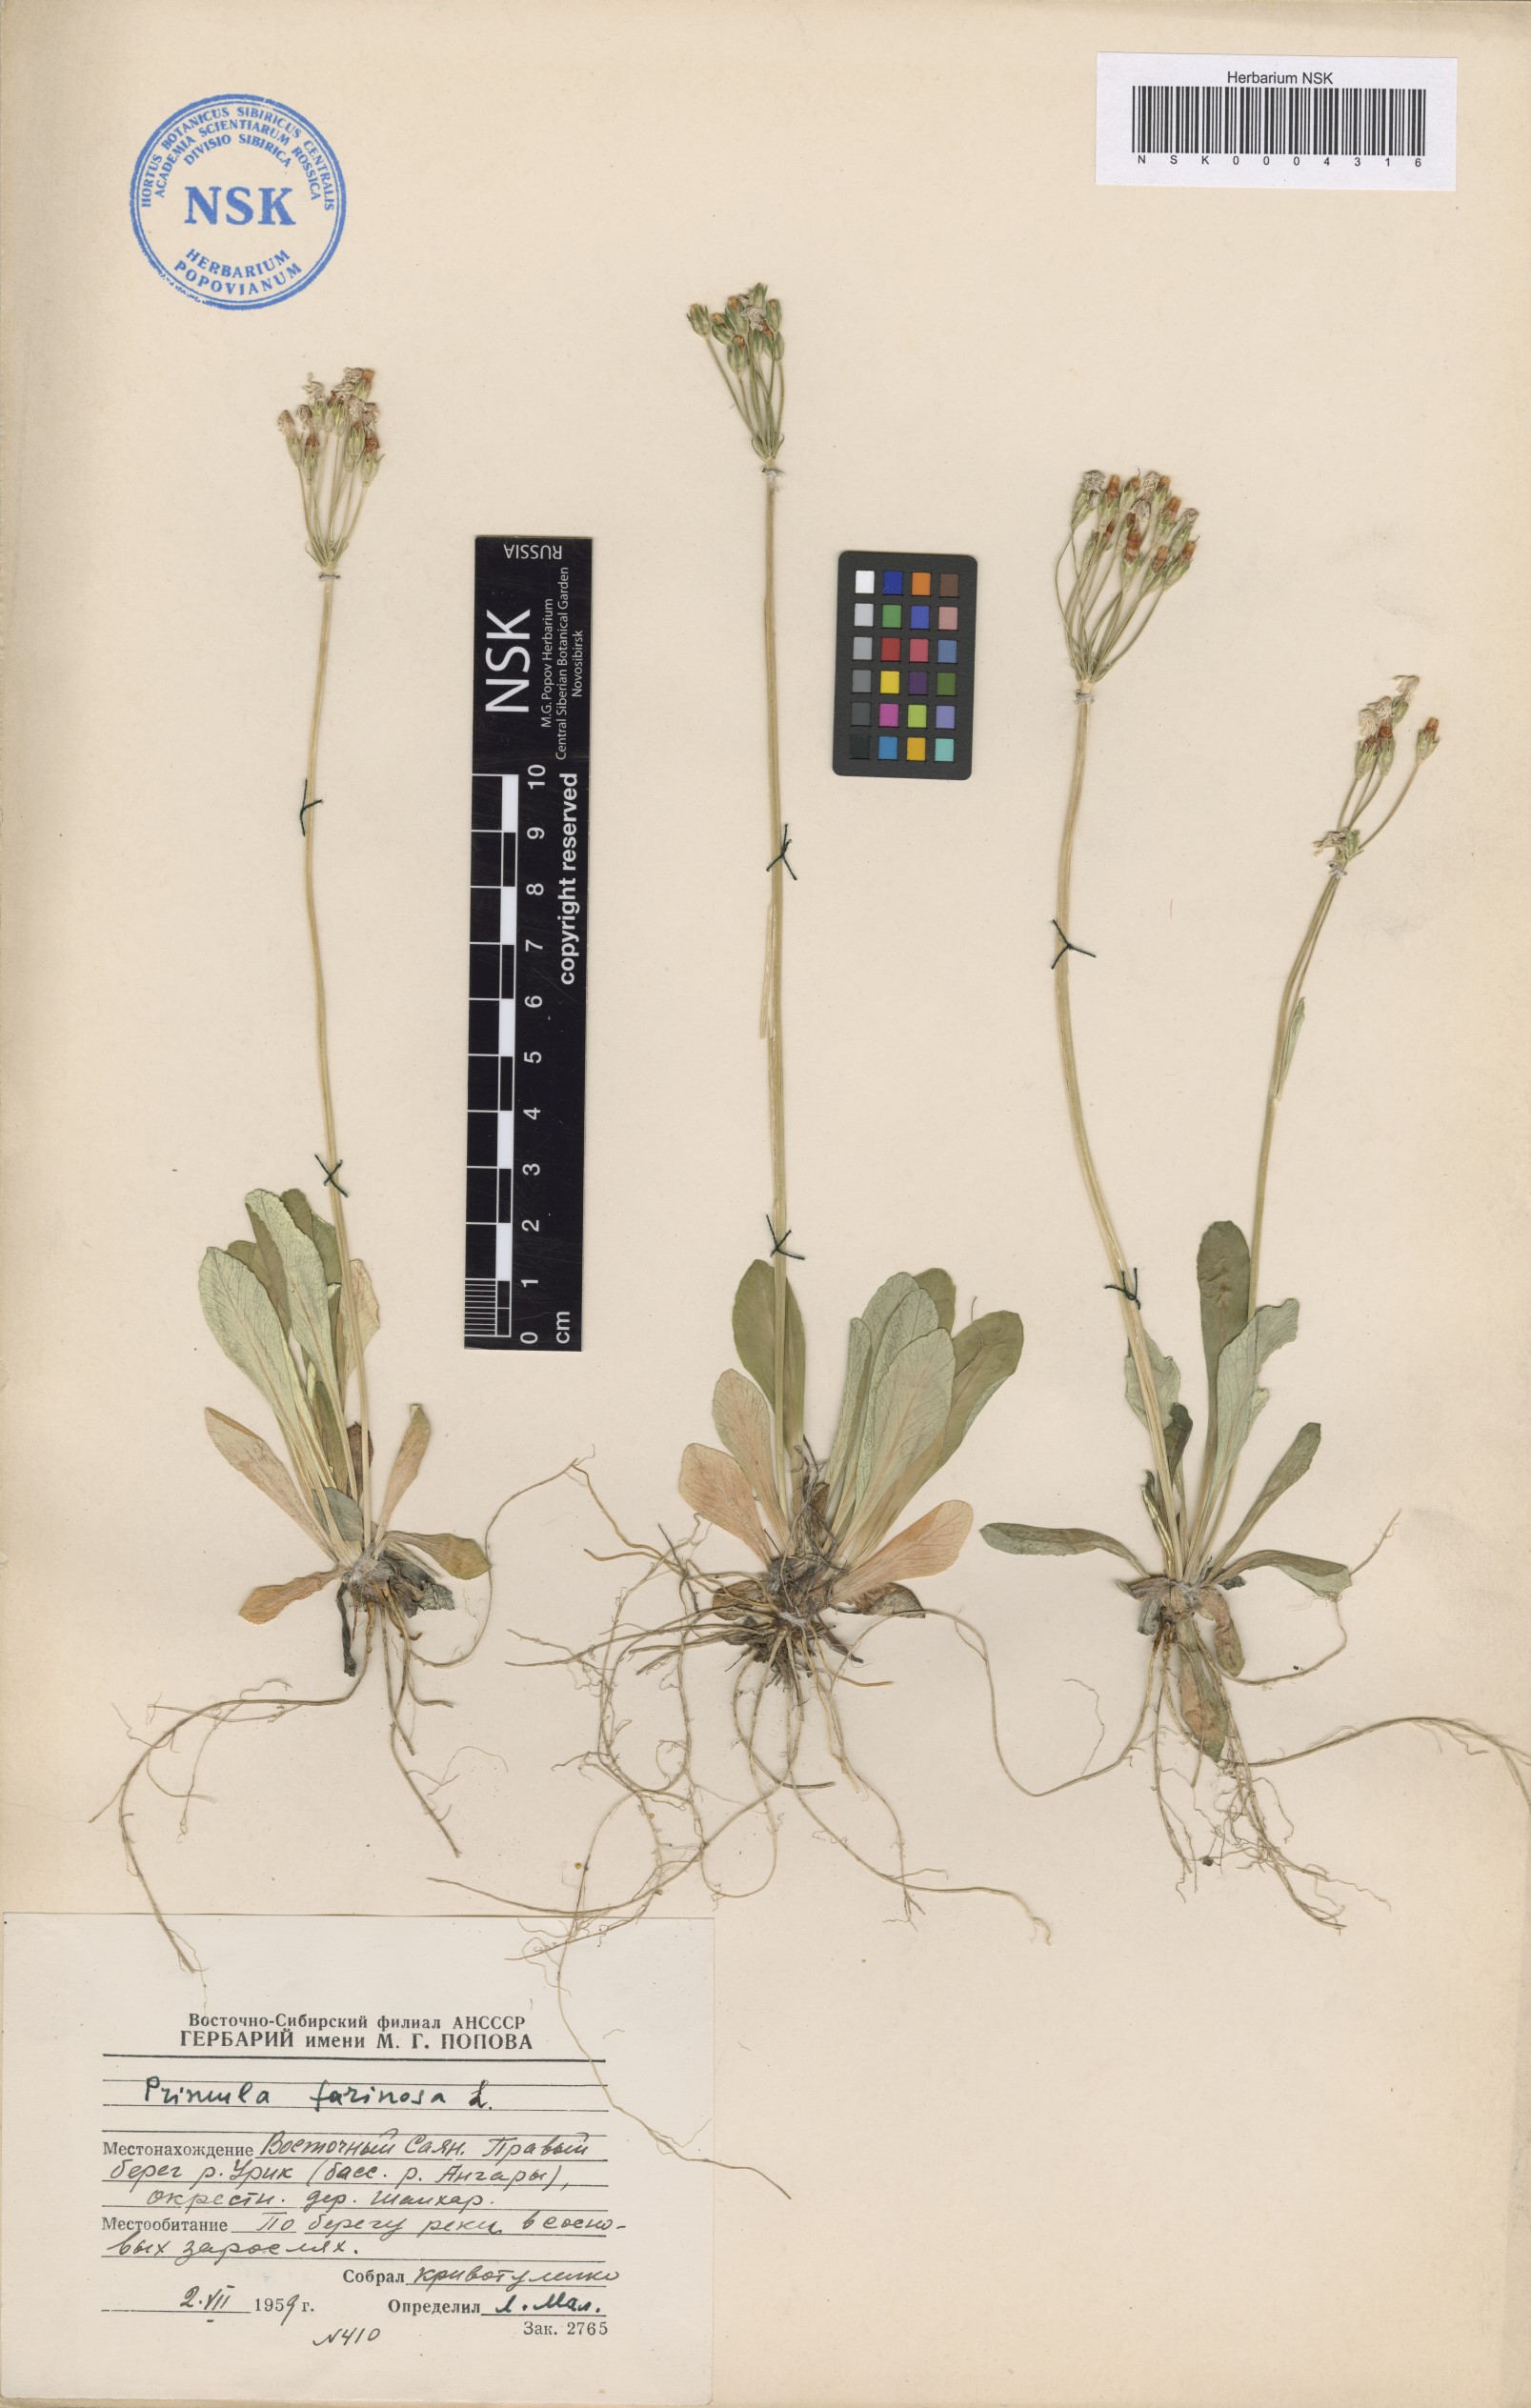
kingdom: Plantae
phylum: Tracheophyta
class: Magnoliopsida
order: Ericales
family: Primulaceae
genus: Primula
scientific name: Primula farinosa
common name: Bird's-eye primrose
